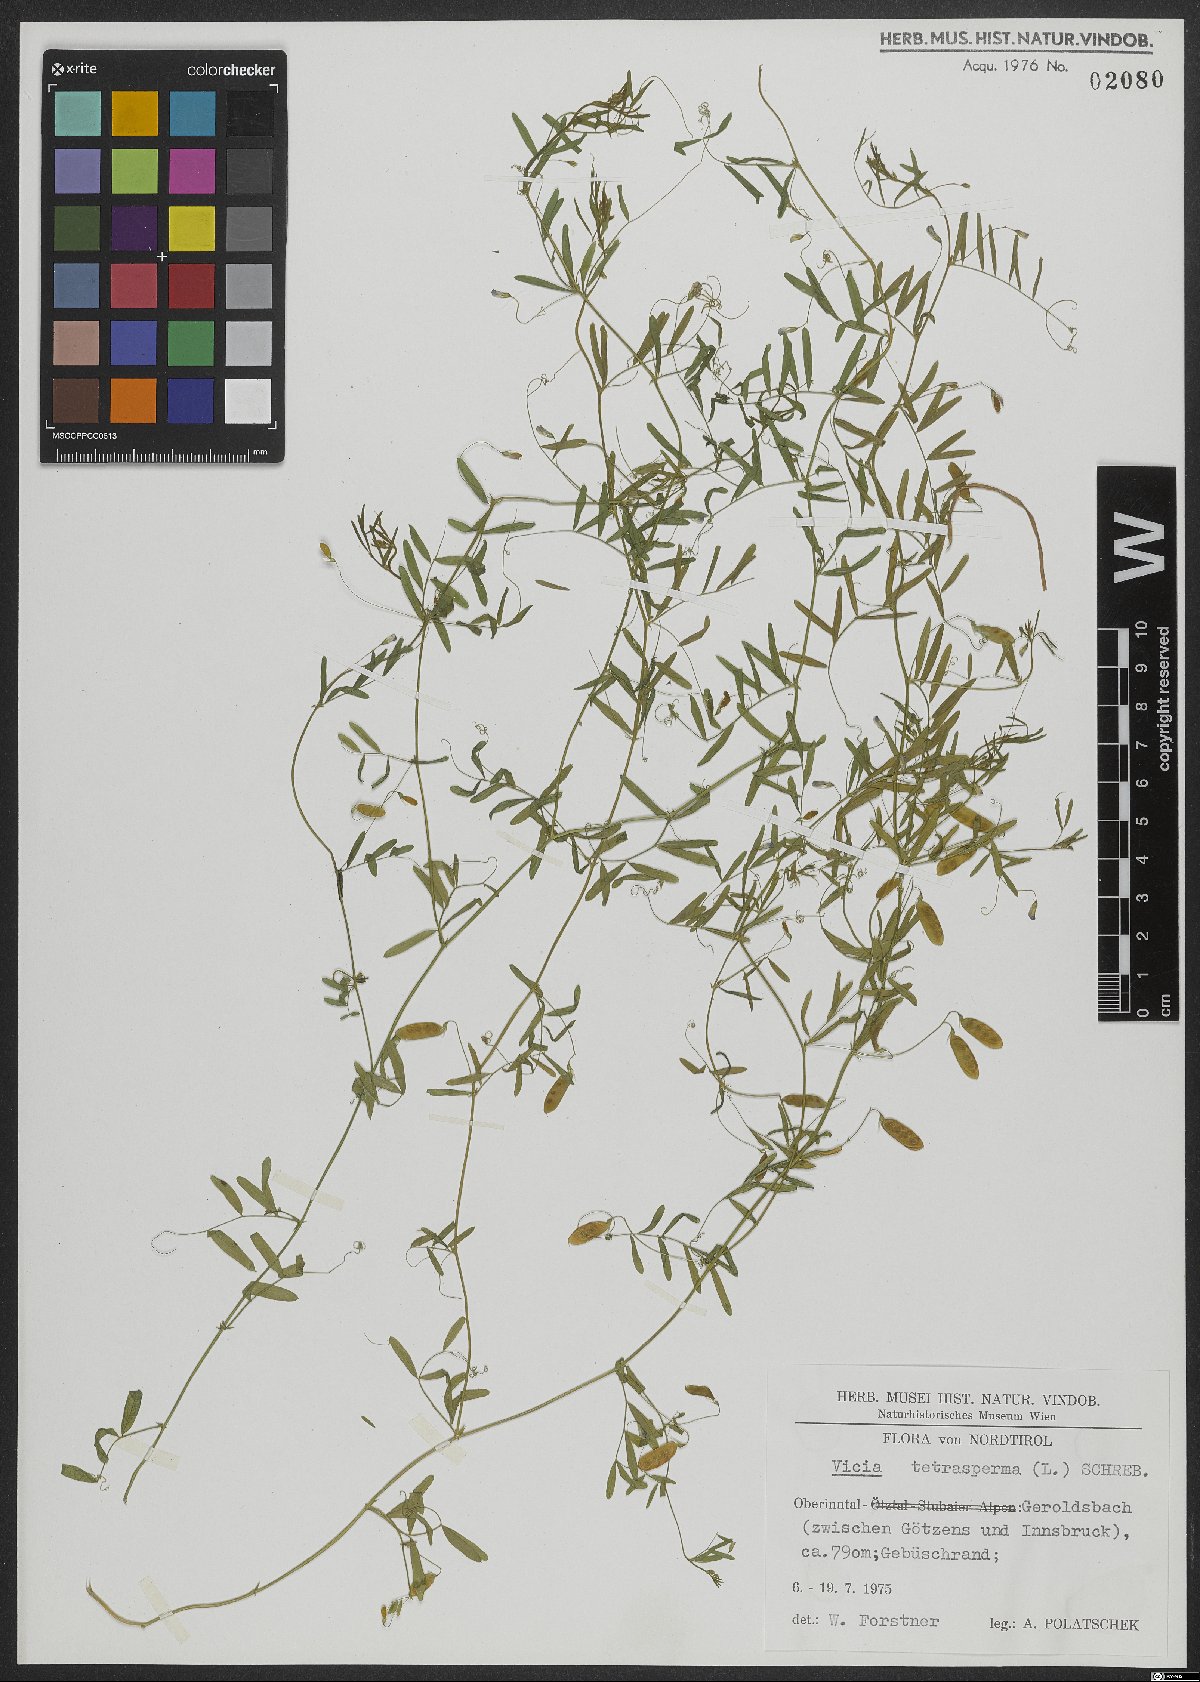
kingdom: Plantae
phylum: Tracheophyta
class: Magnoliopsida
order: Fabales
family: Fabaceae
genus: Vicia
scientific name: Vicia tetrasperma
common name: Smooth tare
